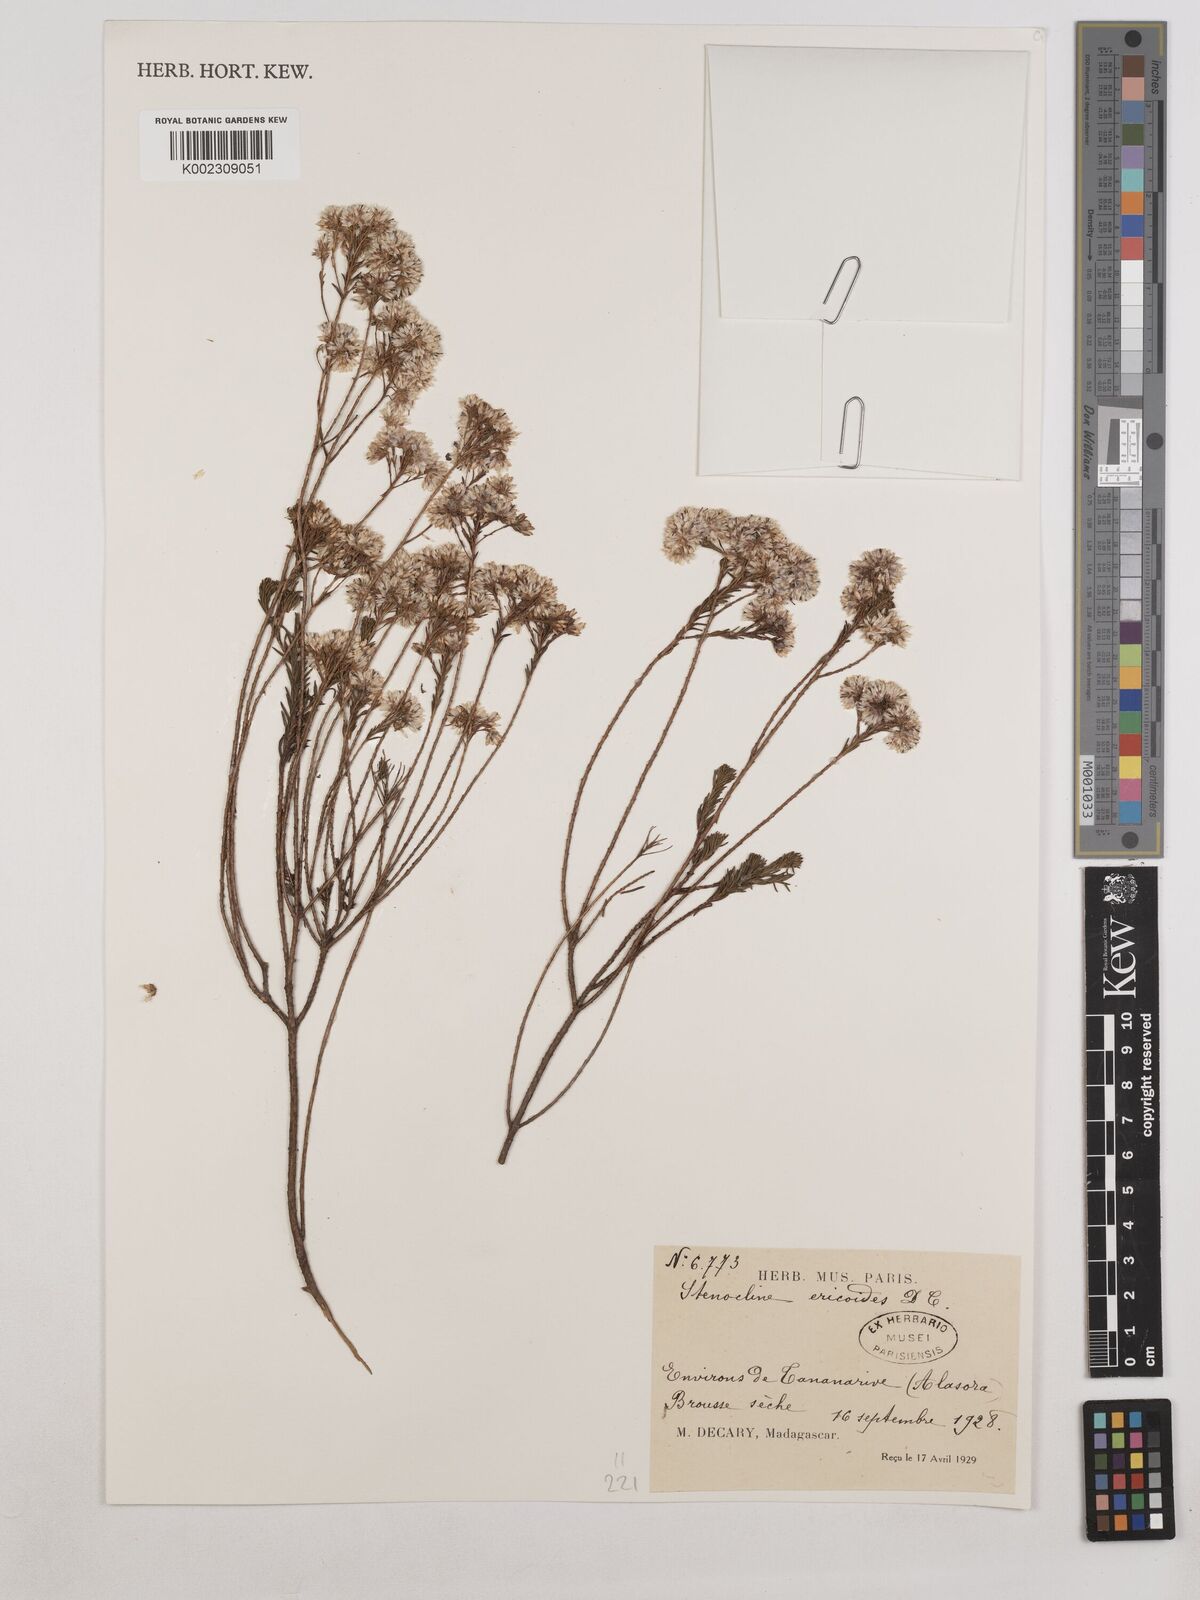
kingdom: Plantae
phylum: Tracheophyta
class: Magnoliopsida
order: Asterales
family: Asteraceae
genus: Stenocline
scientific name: Stenocline ericoides
